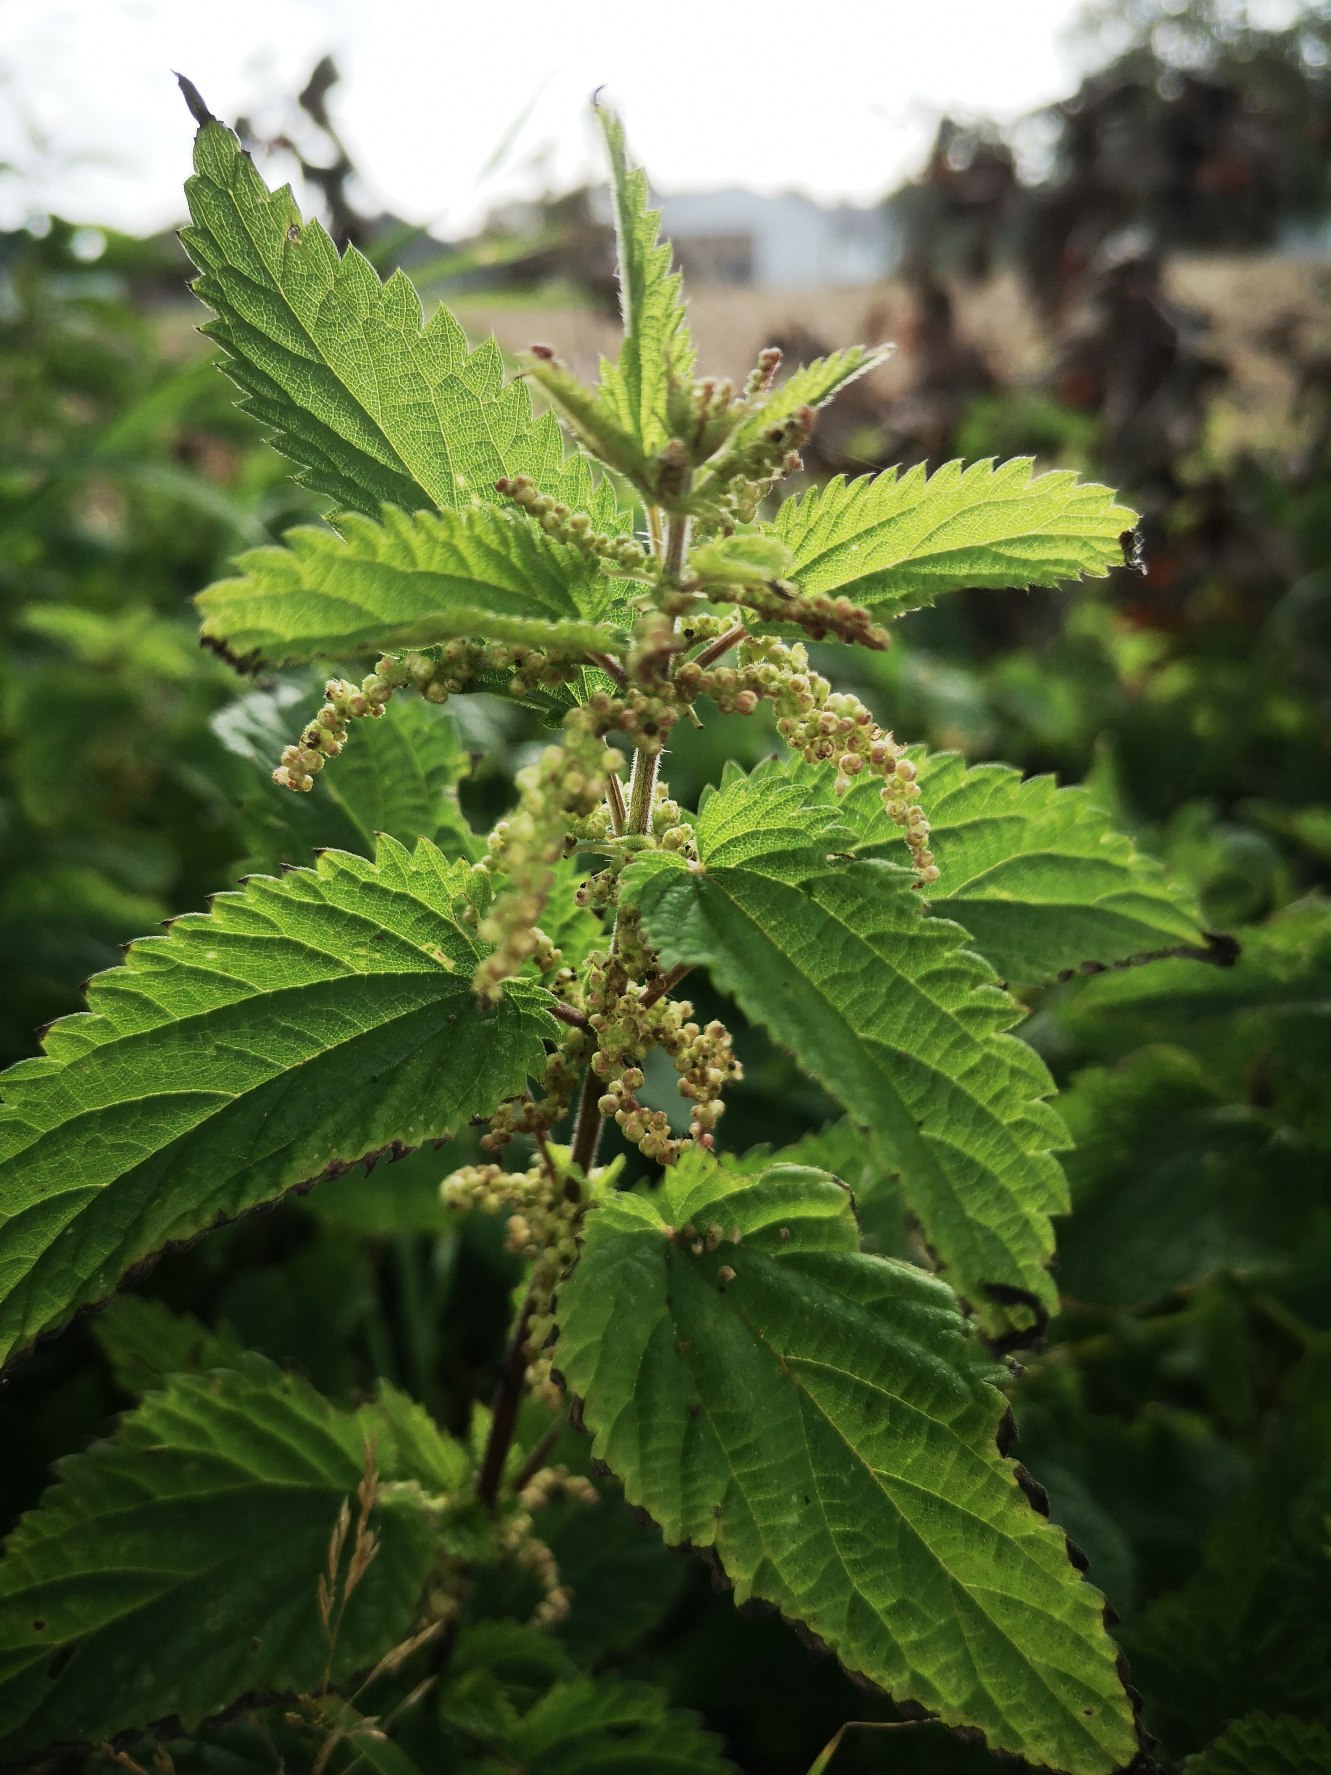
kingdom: Plantae
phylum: Tracheophyta
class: Magnoliopsida
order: Rosales
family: Urticaceae
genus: Urtica
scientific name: Urtica dioica
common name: Stor nælde
